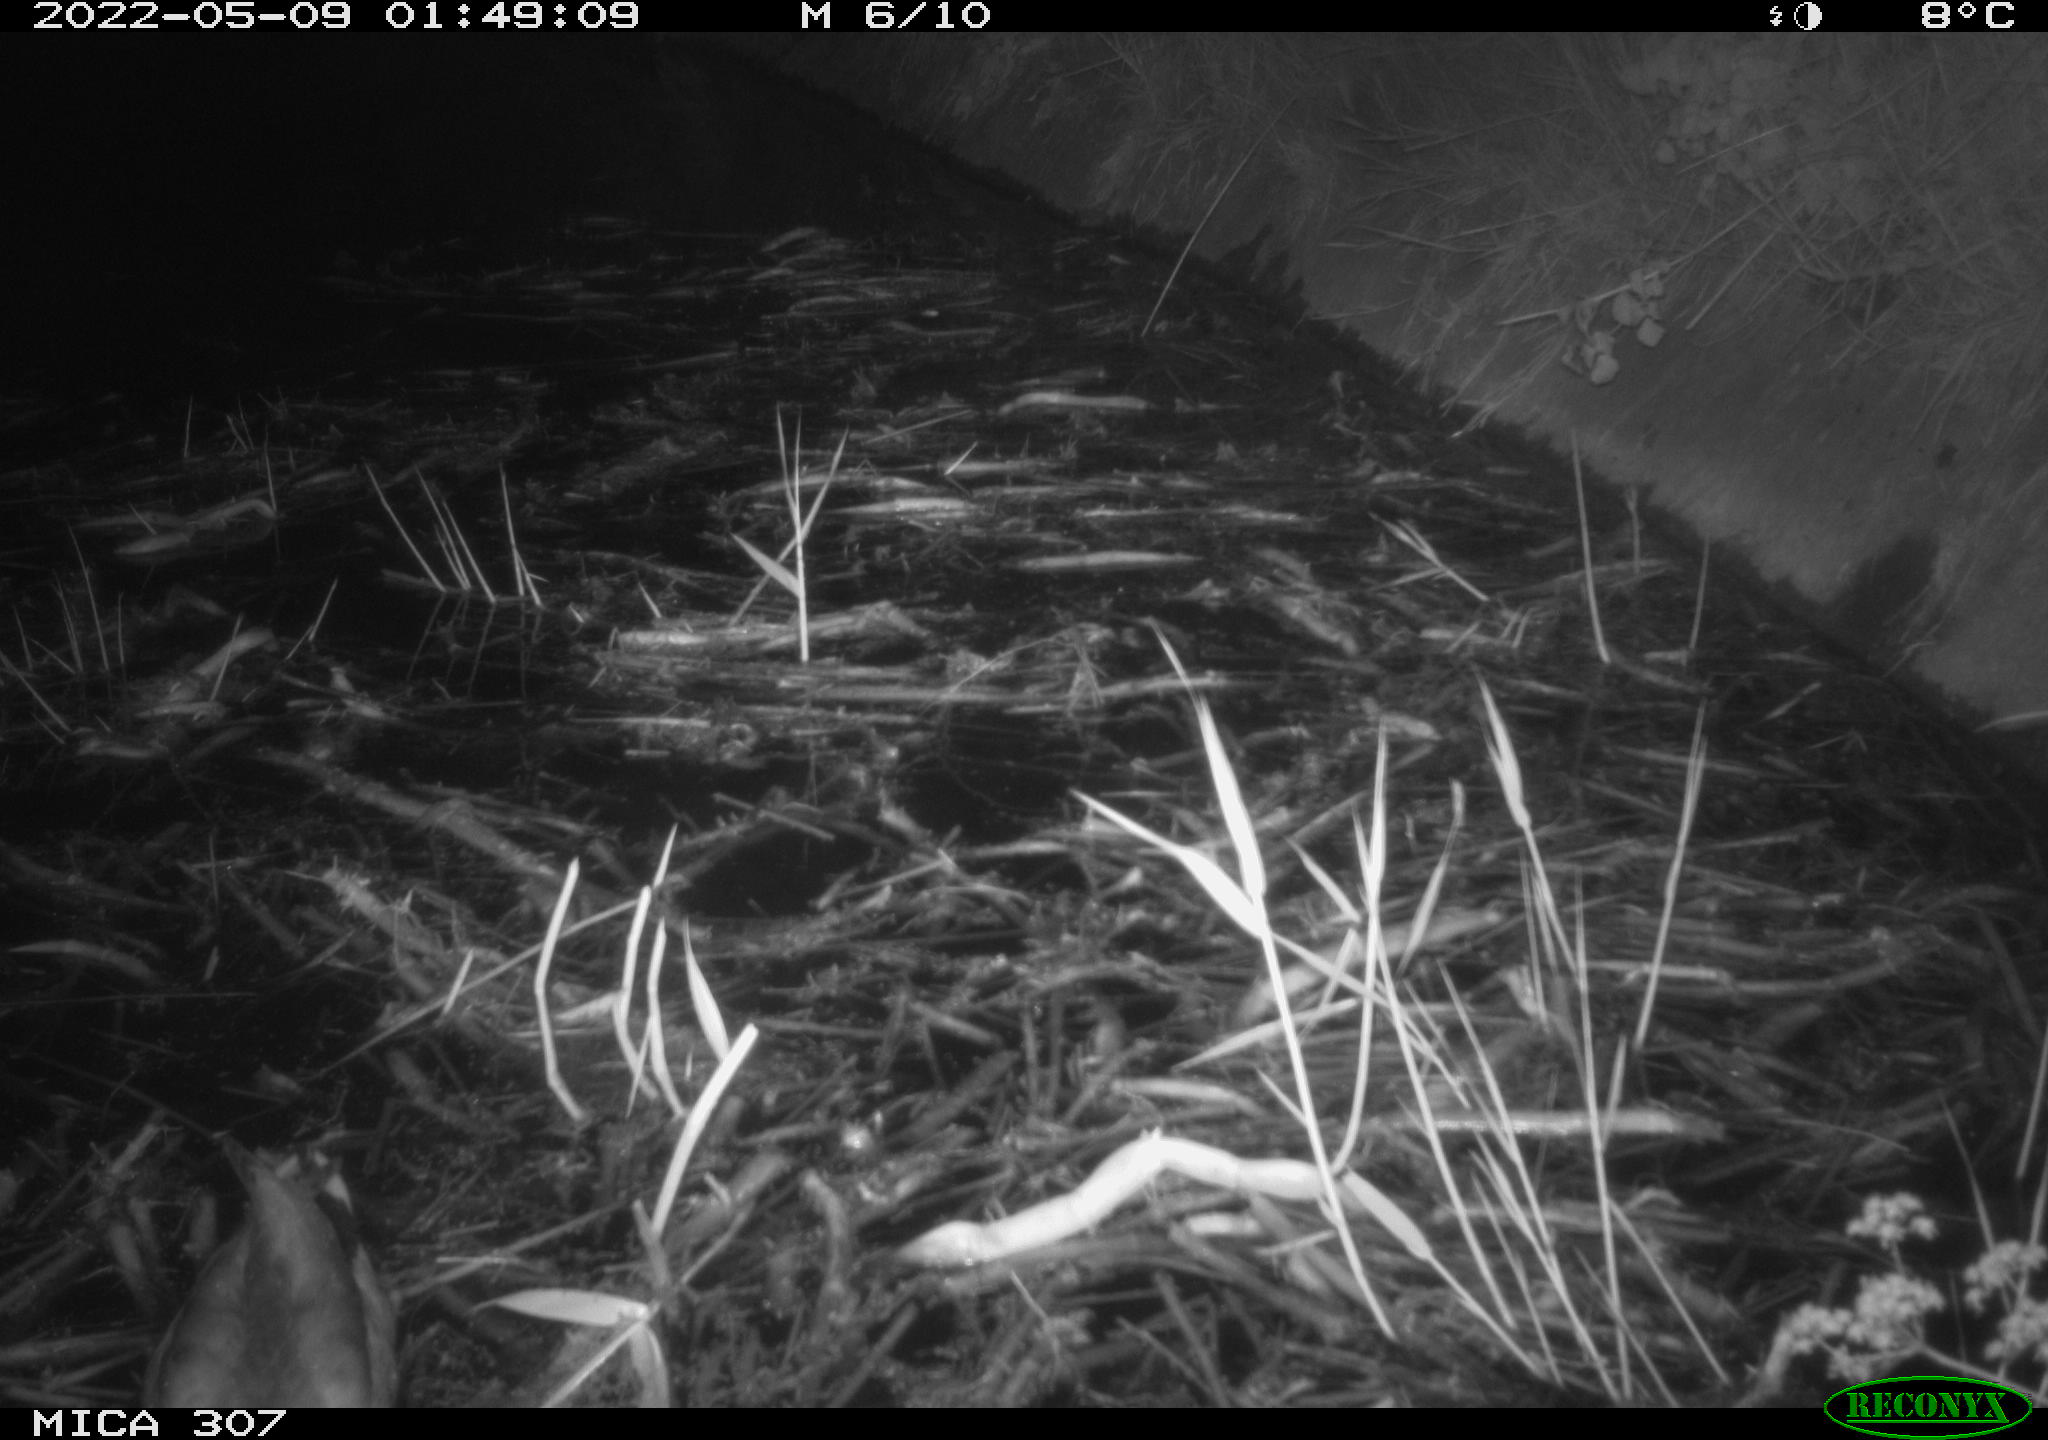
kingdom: Animalia
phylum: Chordata
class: Aves
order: Anseriformes
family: Anatidae
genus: Anas
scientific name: Anas platyrhynchos
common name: Mallard
